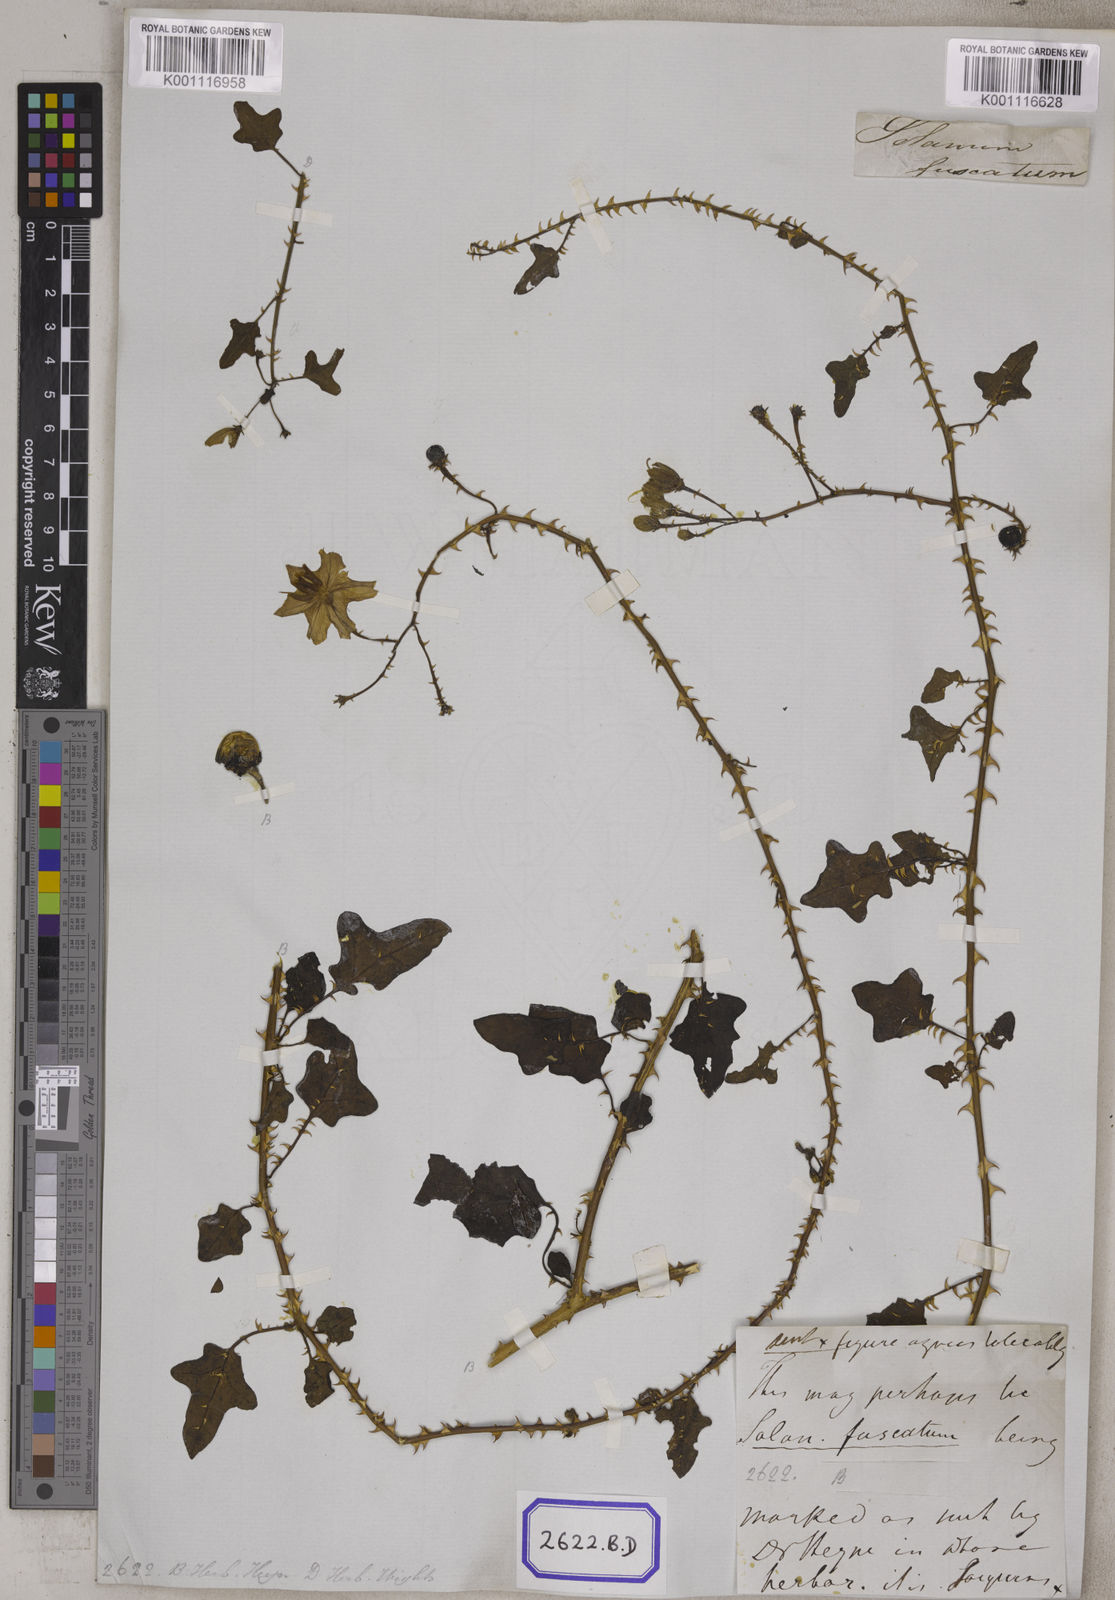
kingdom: Plantae
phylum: Tracheophyta
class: Magnoliopsida
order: Solanales
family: Solanaceae
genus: Solanum
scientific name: Solanum trilobatum
